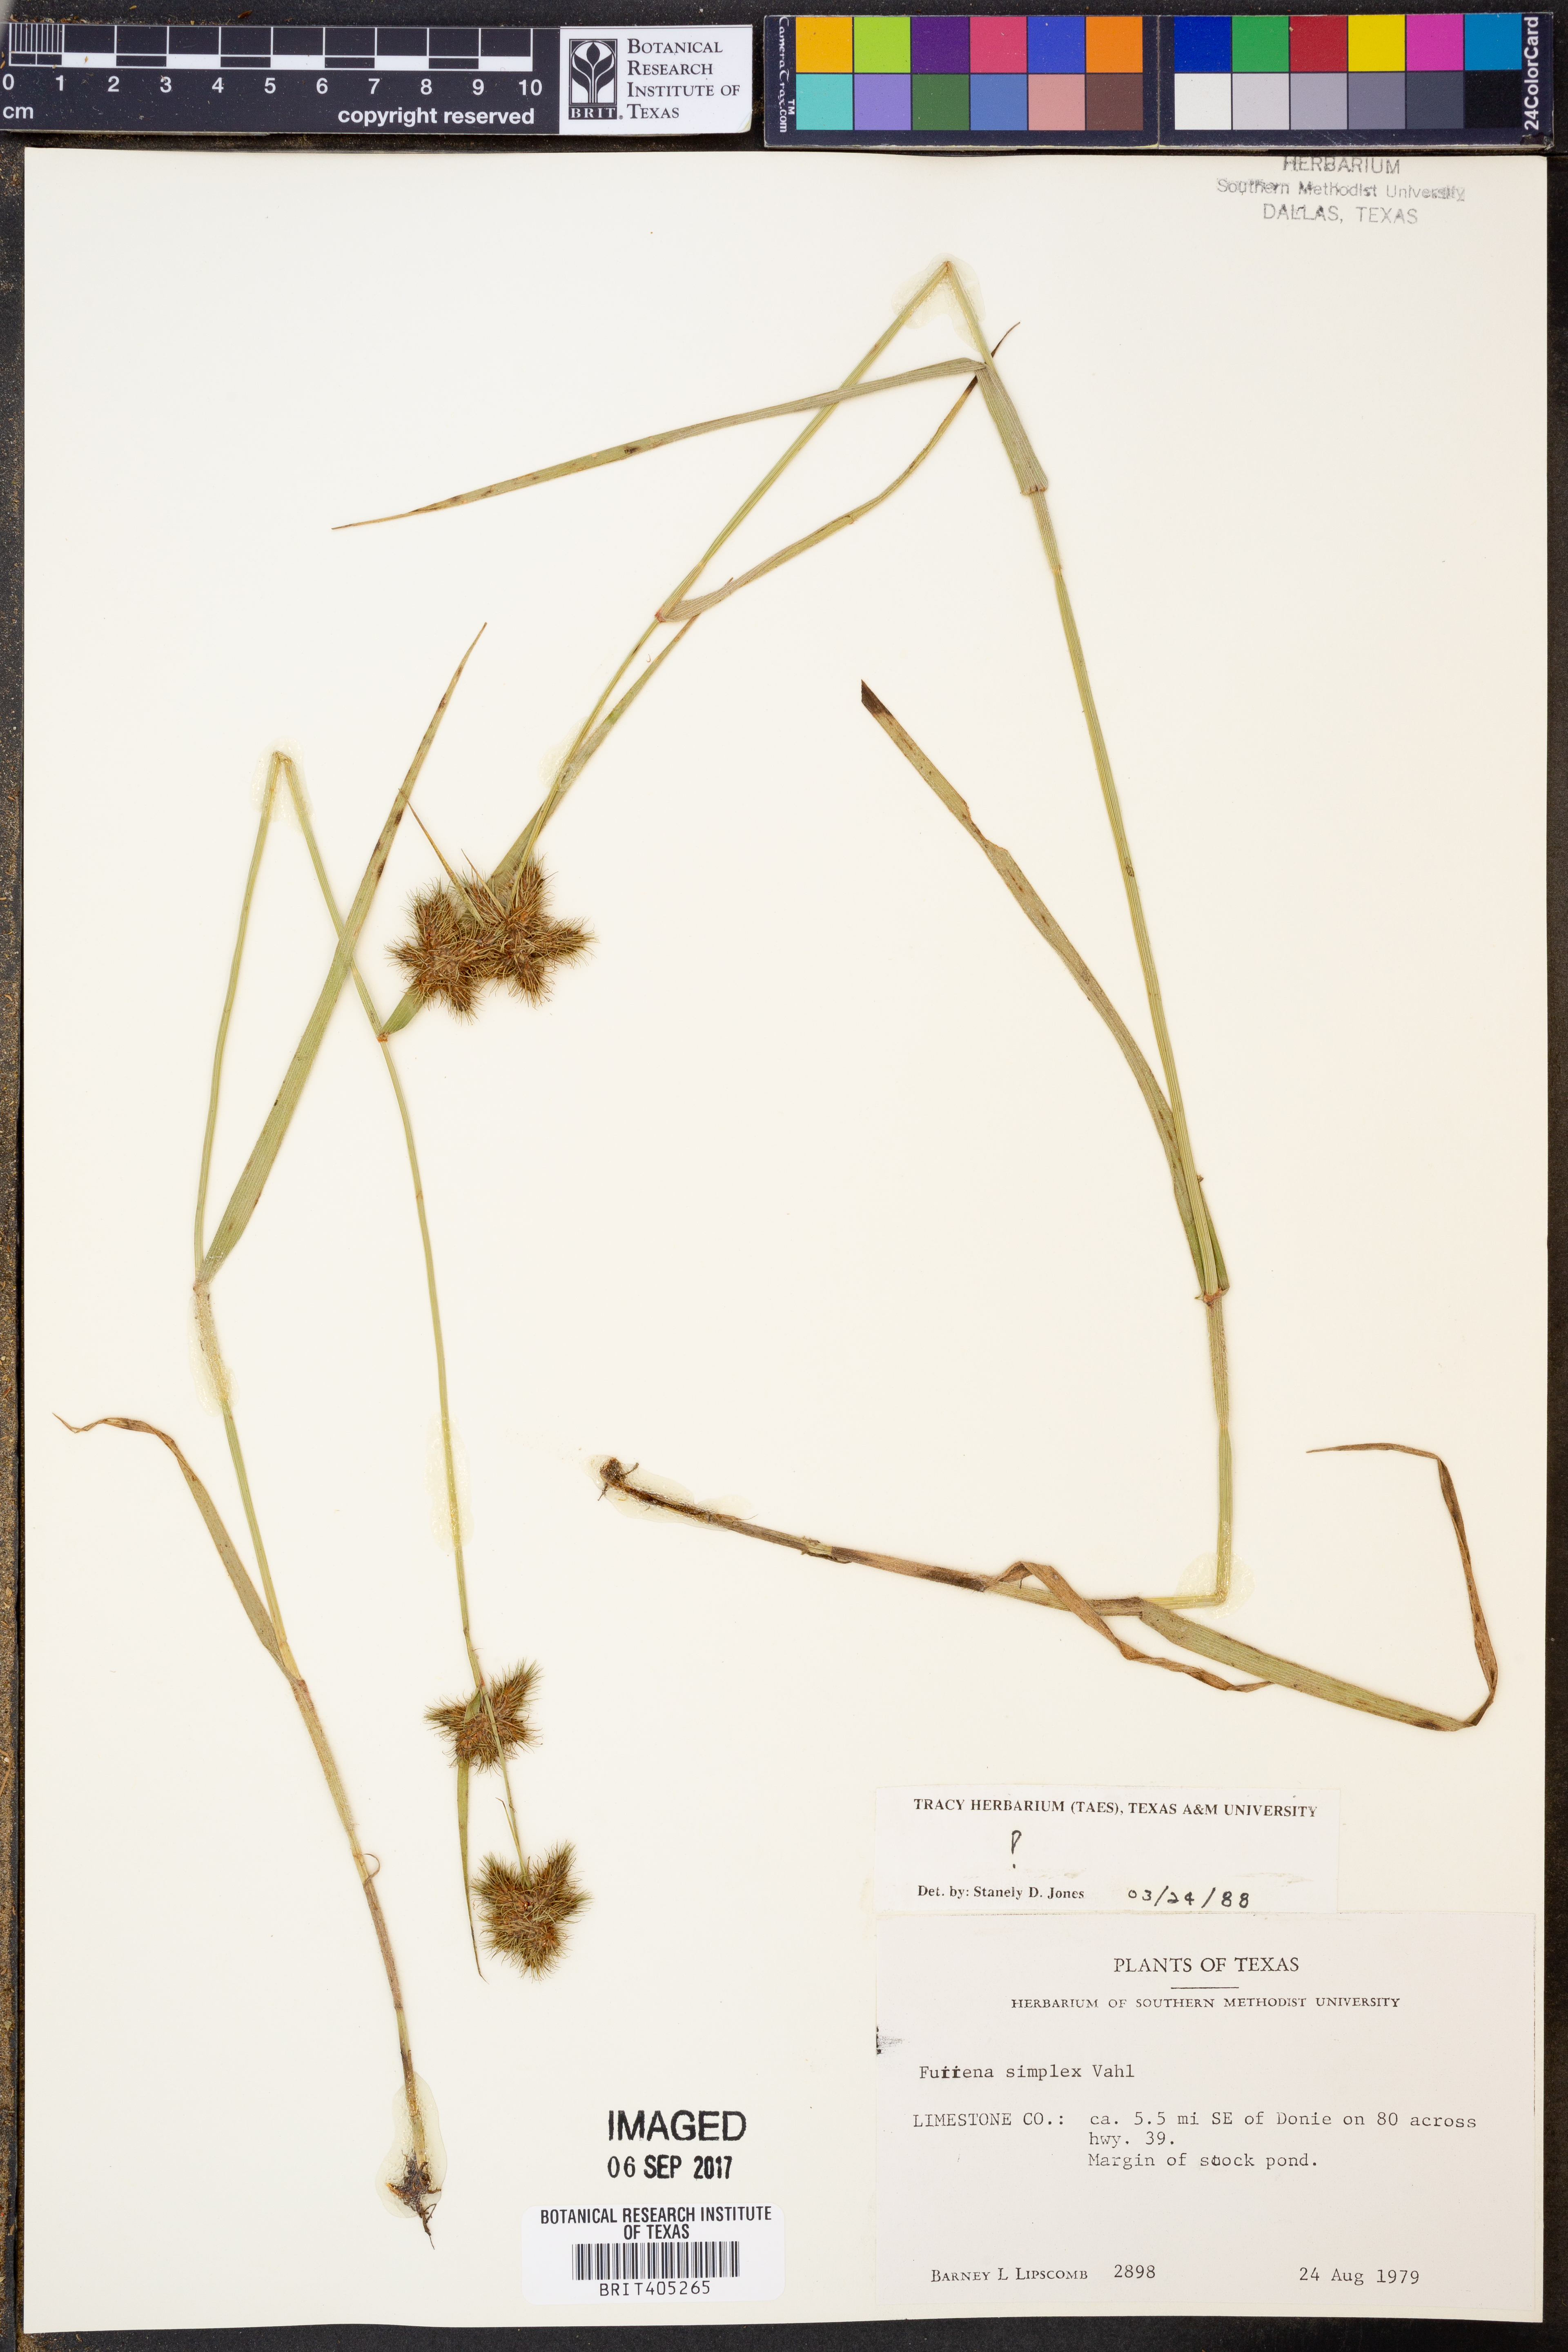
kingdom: Plantae
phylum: Tracheophyta
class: Liliopsida
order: Poales
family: Cyperaceae
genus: Fuirena
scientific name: Fuirena simplex
